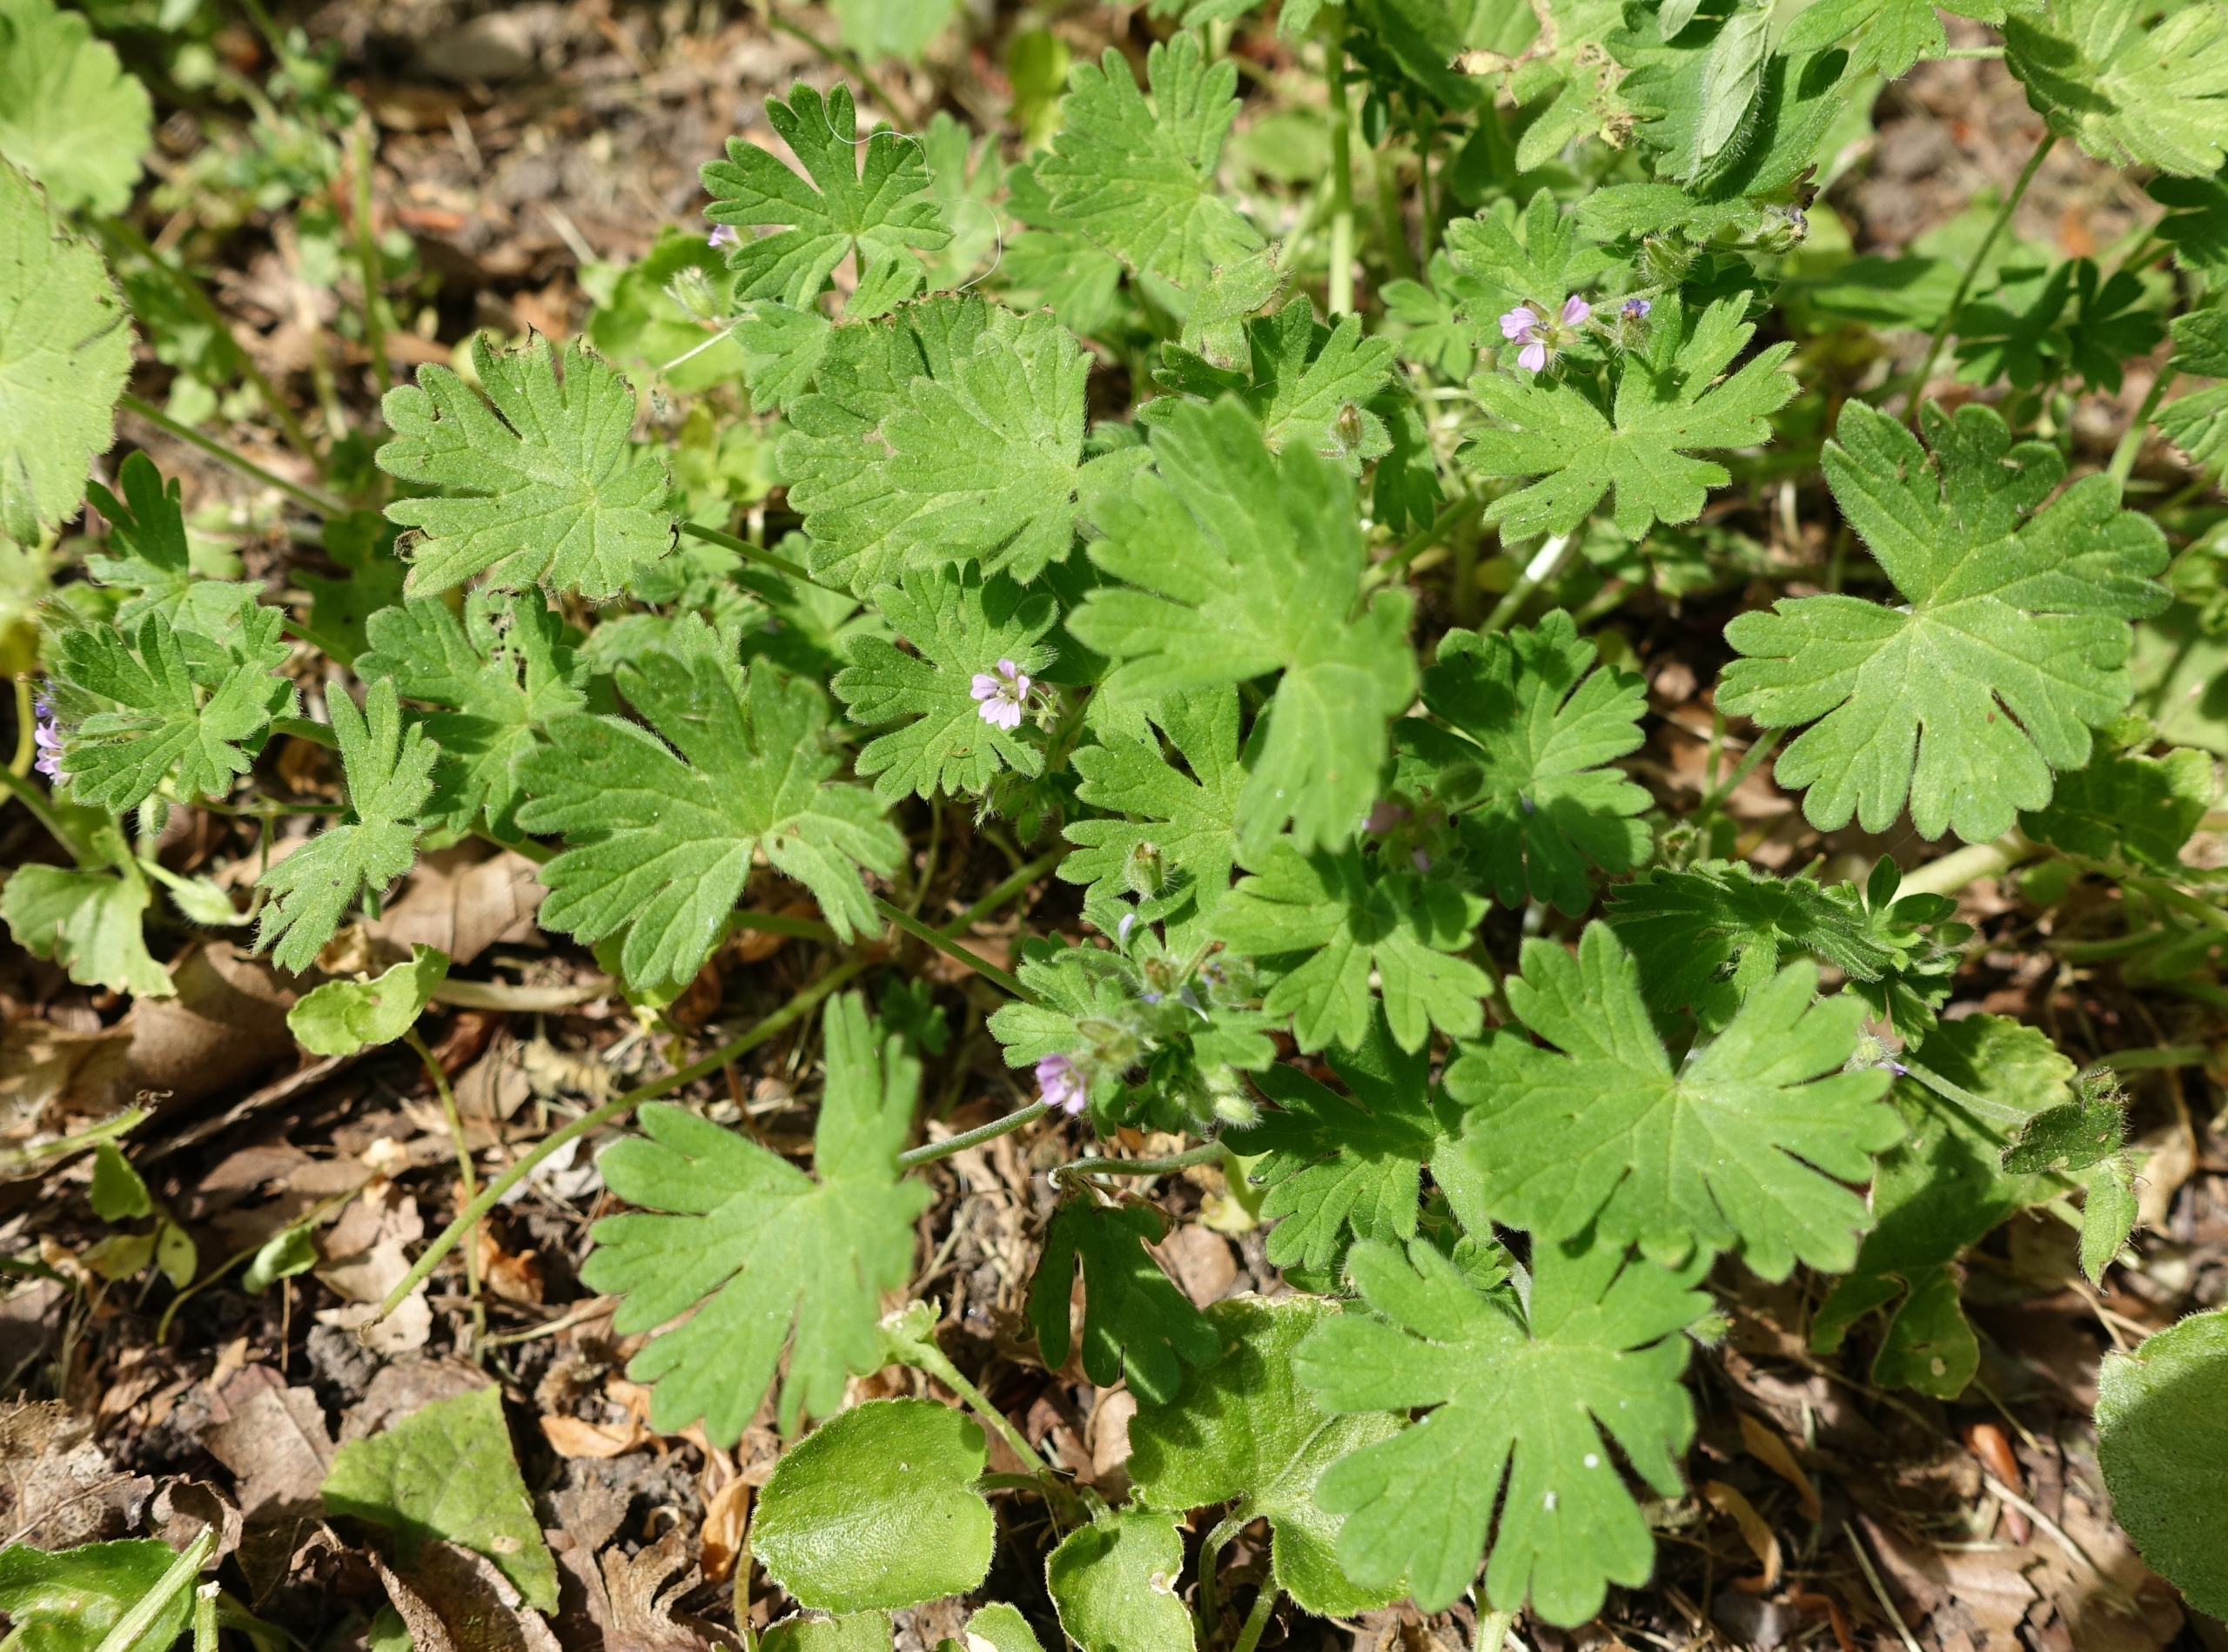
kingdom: Plantae
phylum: Tracheophyta
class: Magnoliopsida
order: Geraniales
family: Geraniaceae
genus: Geranium
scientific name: Geranium pusillum
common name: Liden storkenæb
